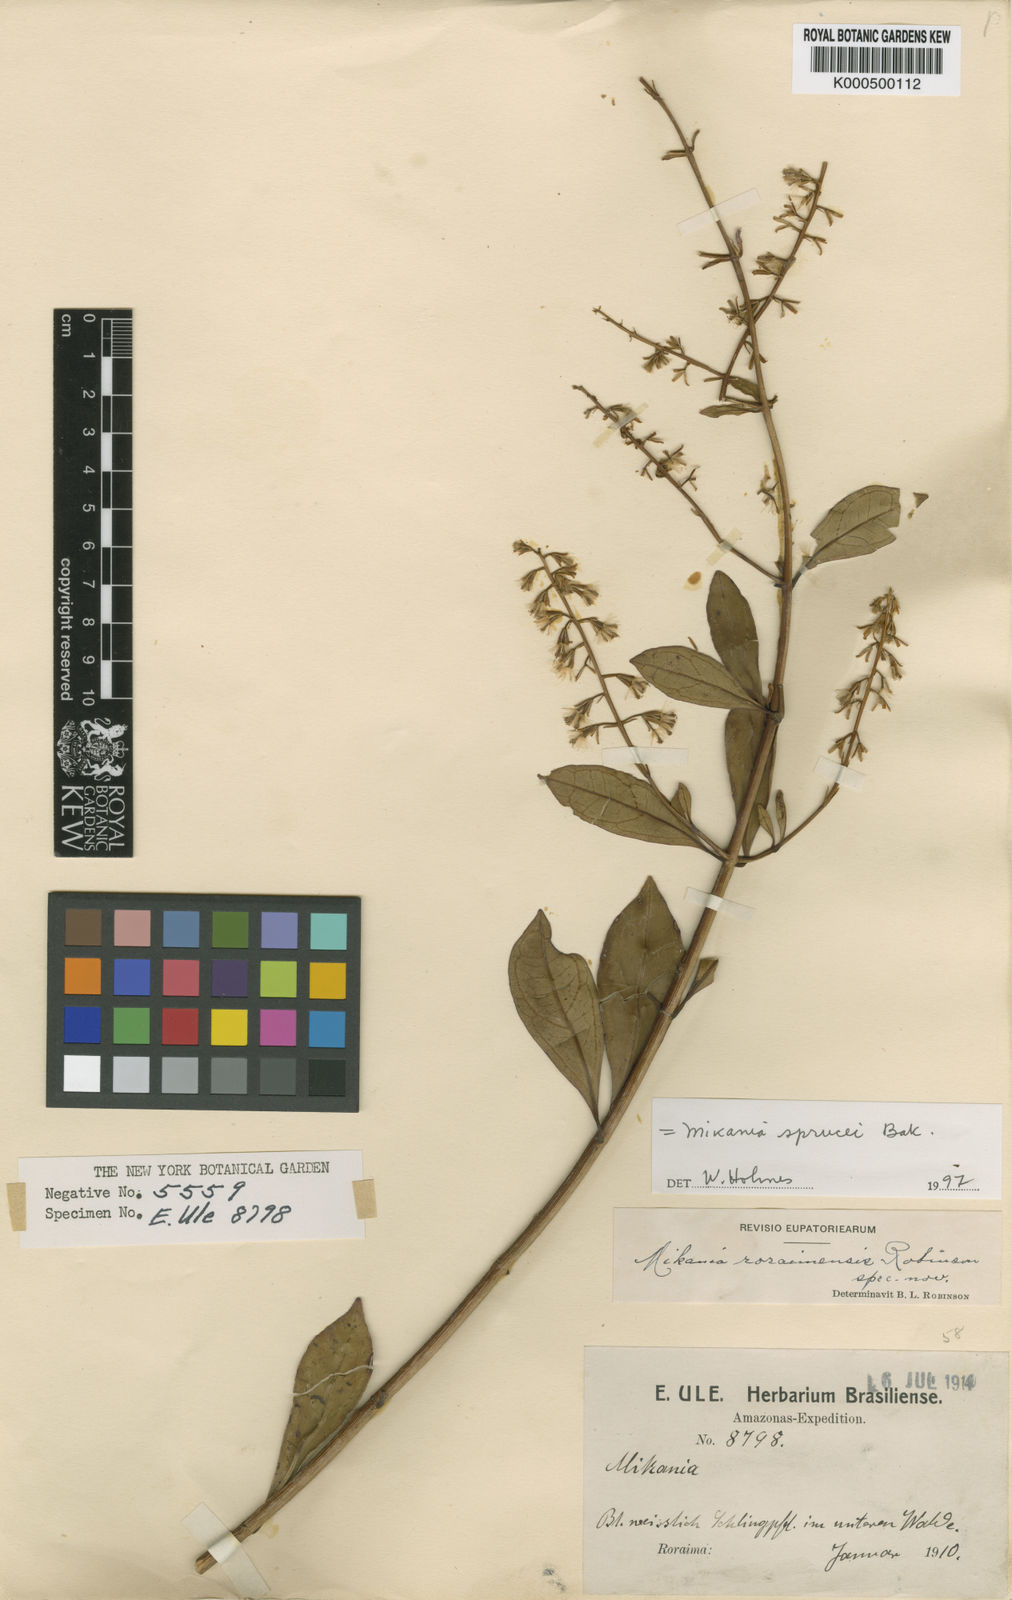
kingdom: Plantae
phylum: Tracheophyta
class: Magnoliopsida
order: Asterales
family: Asteraceae
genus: Mikania
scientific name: Mikania sprucei
